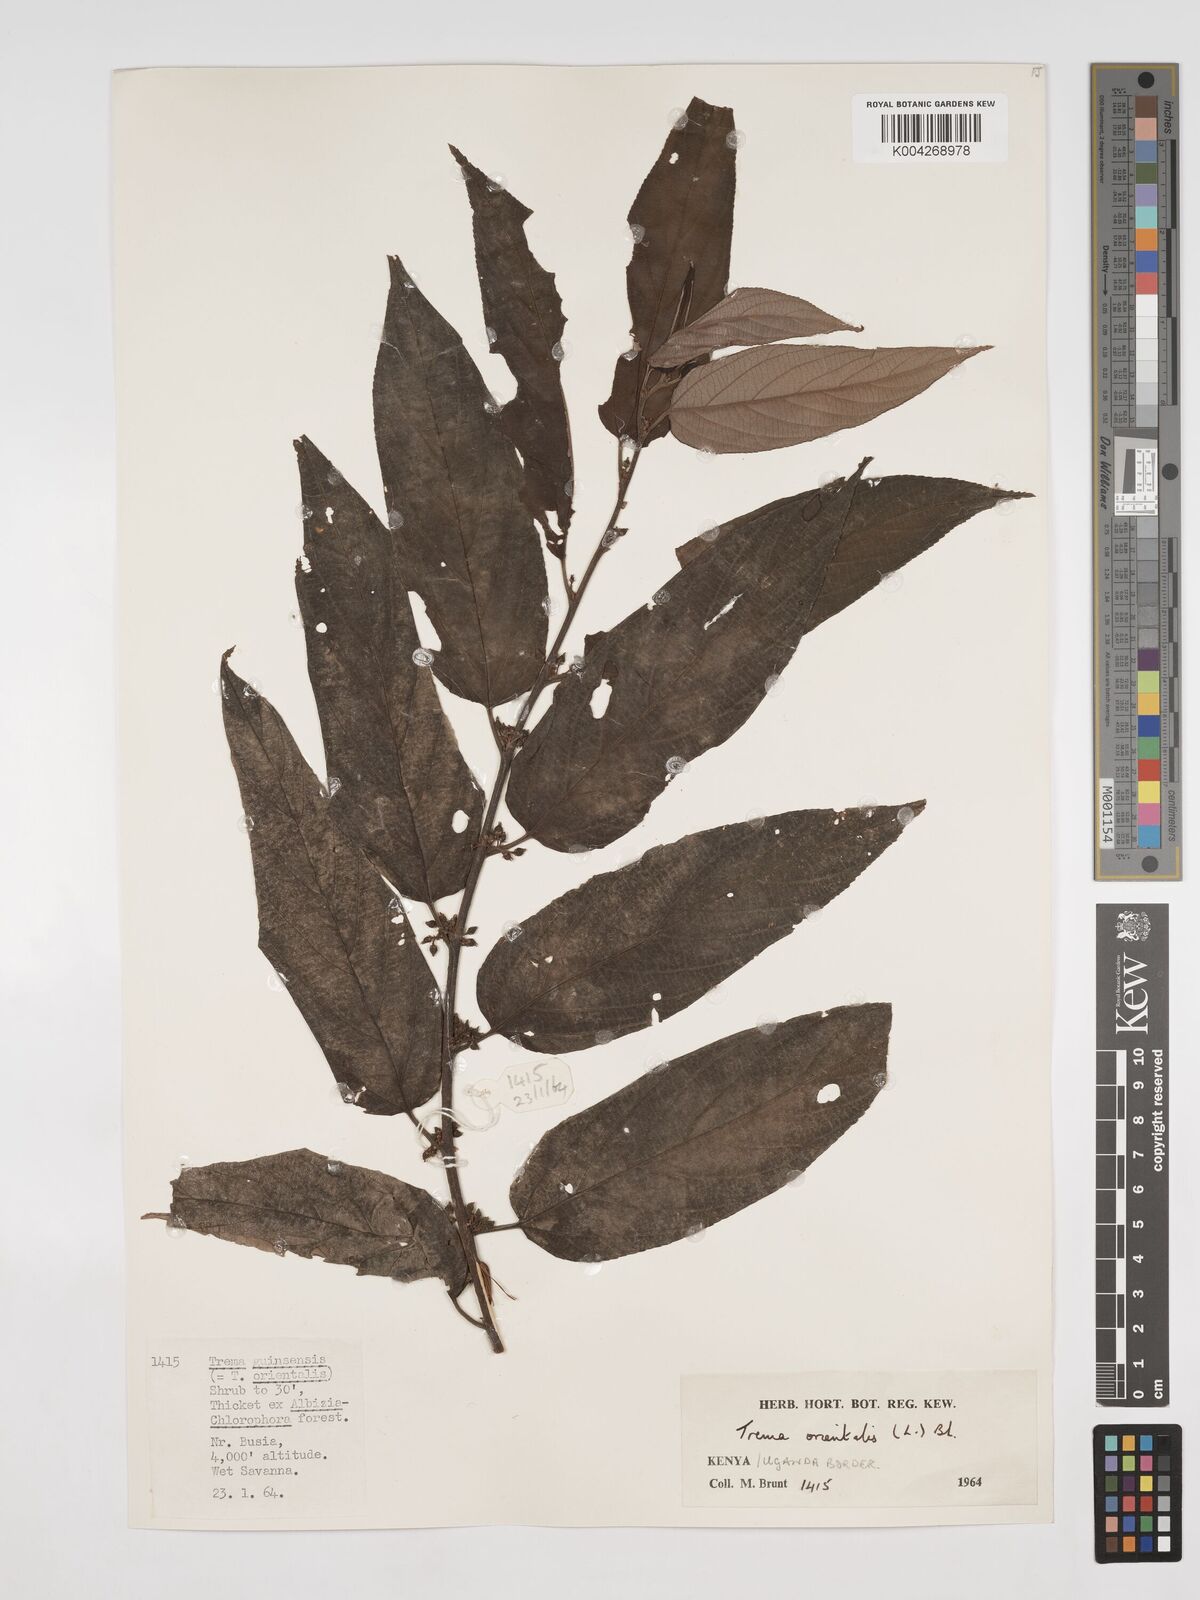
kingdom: Plantae
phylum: Tracheophyta
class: Magnoliopsida
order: Rosales
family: Cannabaceae
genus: Trema
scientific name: Trema orientale
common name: Indian charcoal tree
